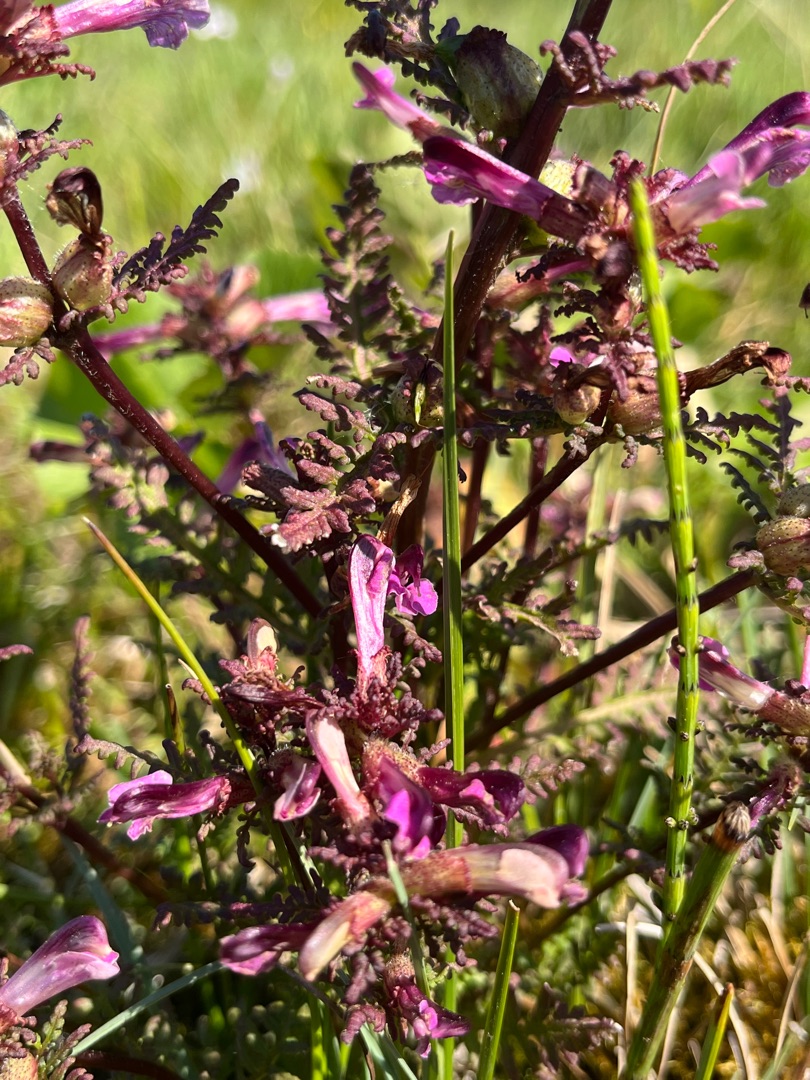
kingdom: Plantae
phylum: Tracheophyta
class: Magnoliopsida
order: Lamiales
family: Orobanchaceae
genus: Pedicularis
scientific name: Pedicularis palustris
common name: Eng-troldurt
